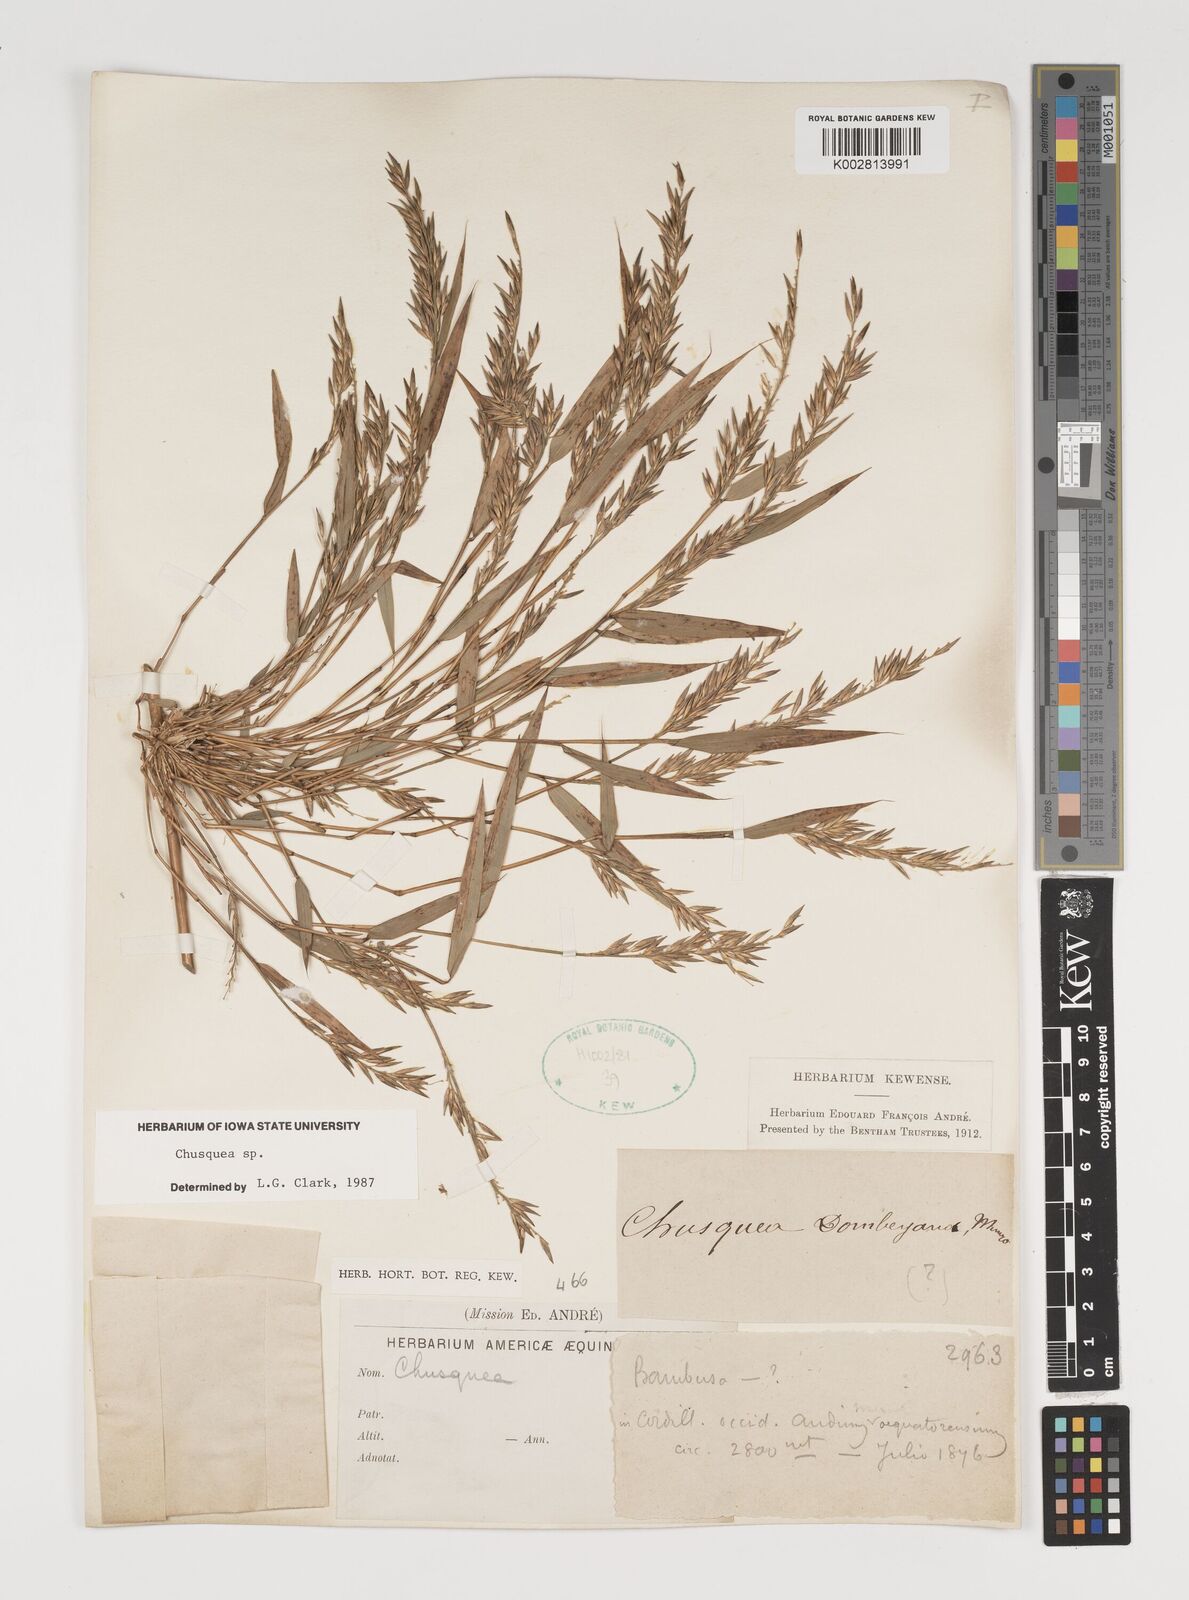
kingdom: Plantae
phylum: Tracheophyta
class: Liliopsida
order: Poales
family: Poaceae
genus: Chusquea
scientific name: Chusquea
